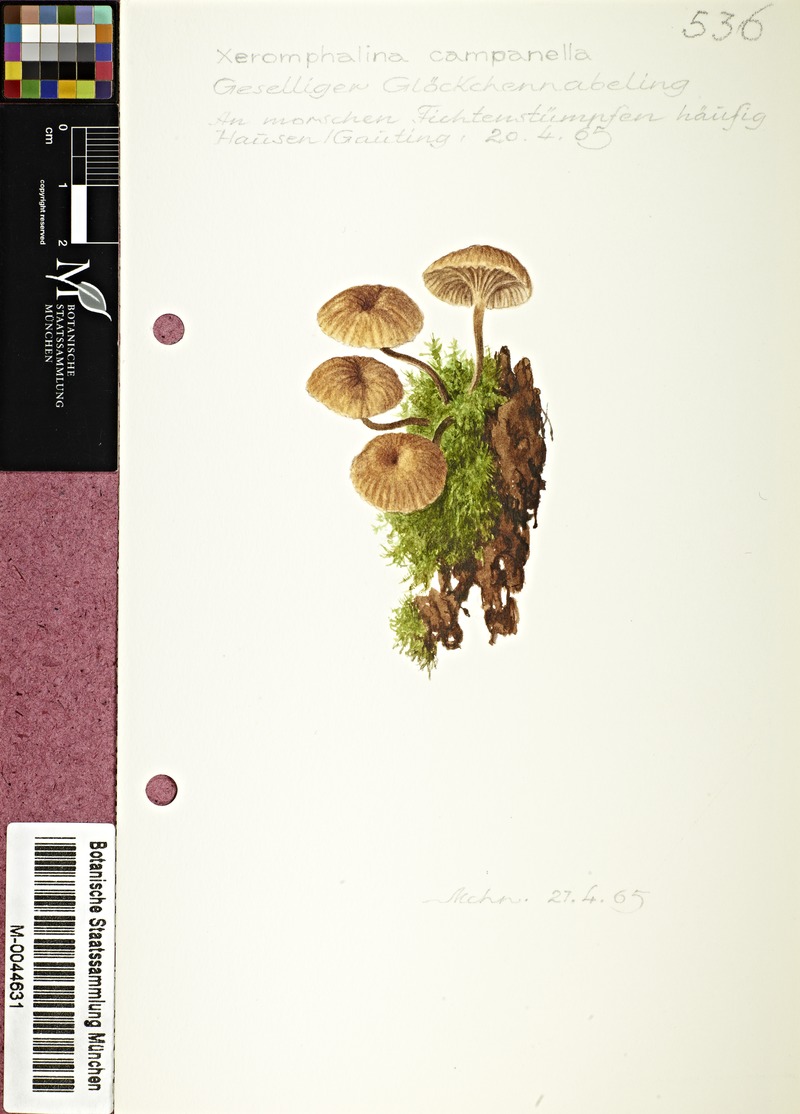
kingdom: Fungi
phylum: Basidiomycota
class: Agaricomycetes
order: Agaricales
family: Mycenaceae
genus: Xeromphalina
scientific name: Xeromphalina campanella
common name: Pinewood gingertail
